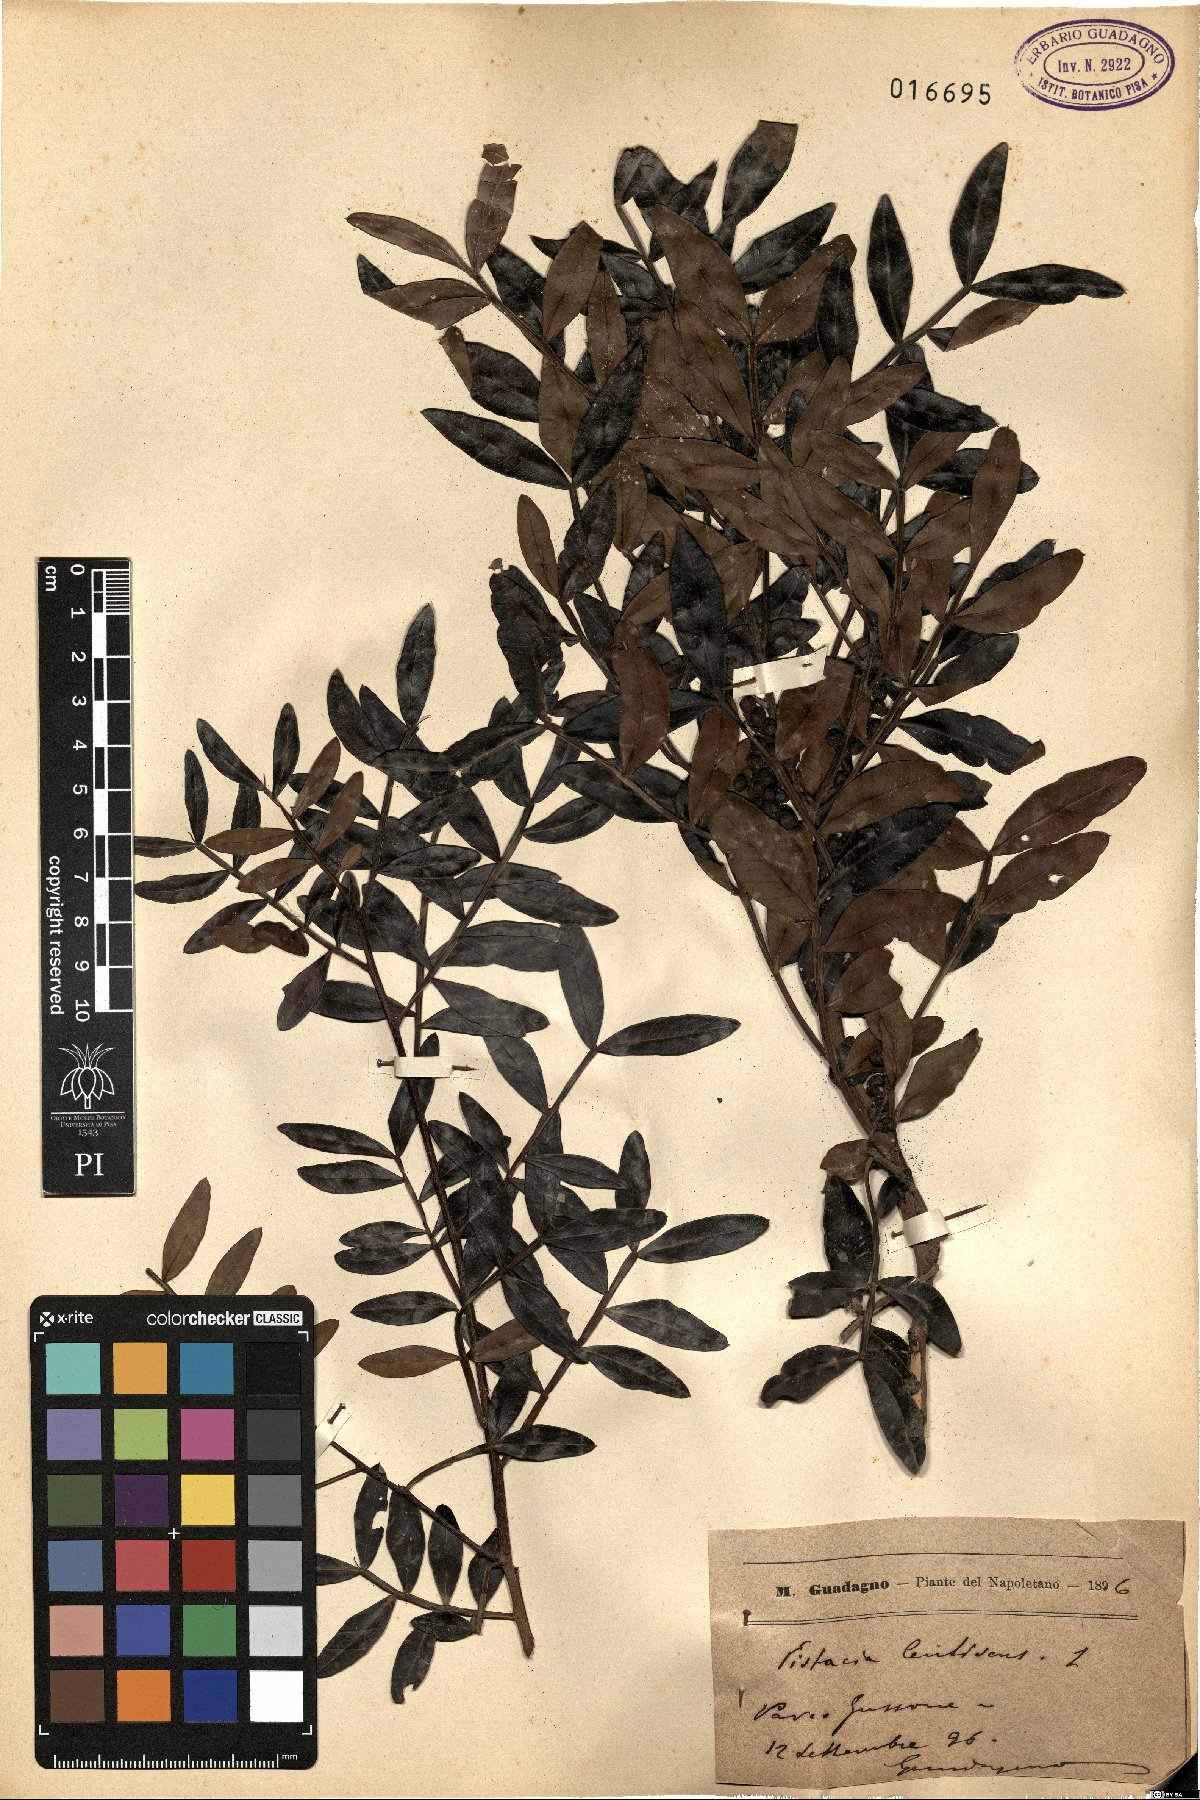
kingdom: Plantae
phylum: Tracheophyta
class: Magnoliopsida
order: Sapindales
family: Anacardiaceae
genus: Pistacia
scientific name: Pistacia lentiscus
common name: Lentisk
